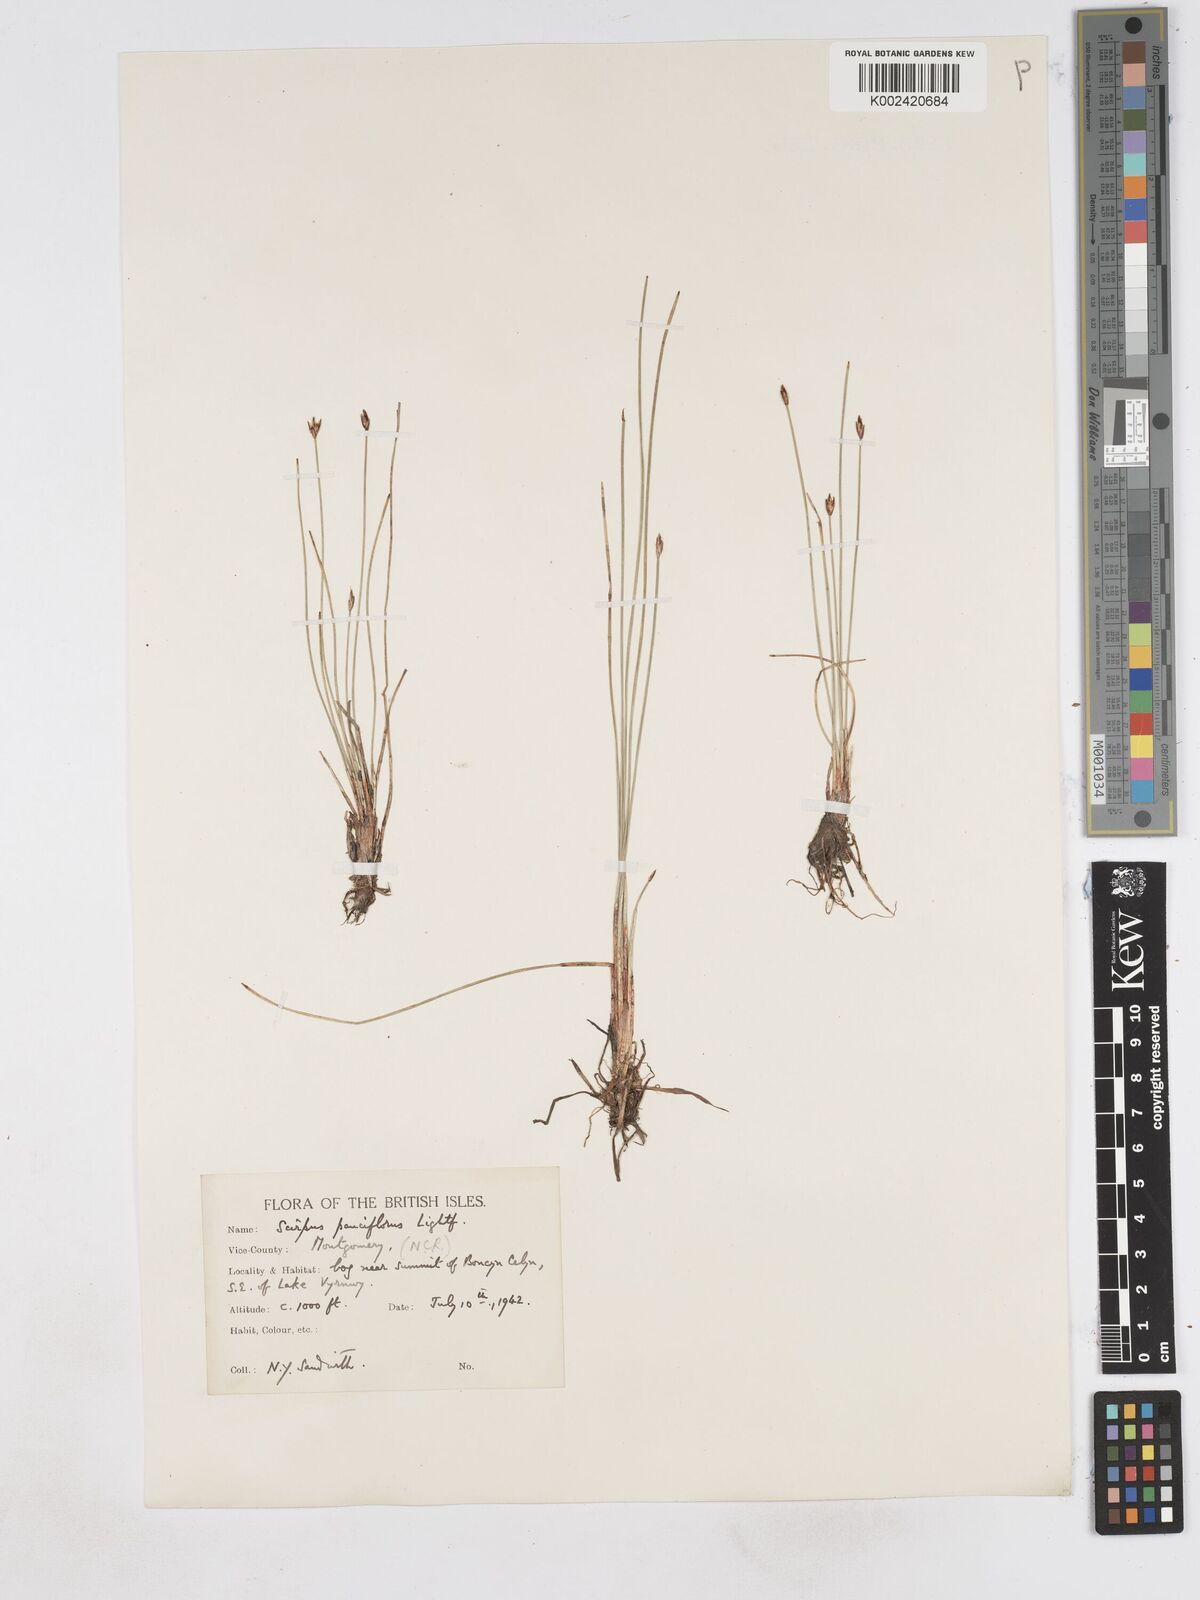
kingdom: Plantae
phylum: Tracheophyta
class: Liliopsida
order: Poales
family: Cyperaceae
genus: Eleocharis
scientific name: Eleocharis quinqueflora
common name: Few-flowered spike-rush
